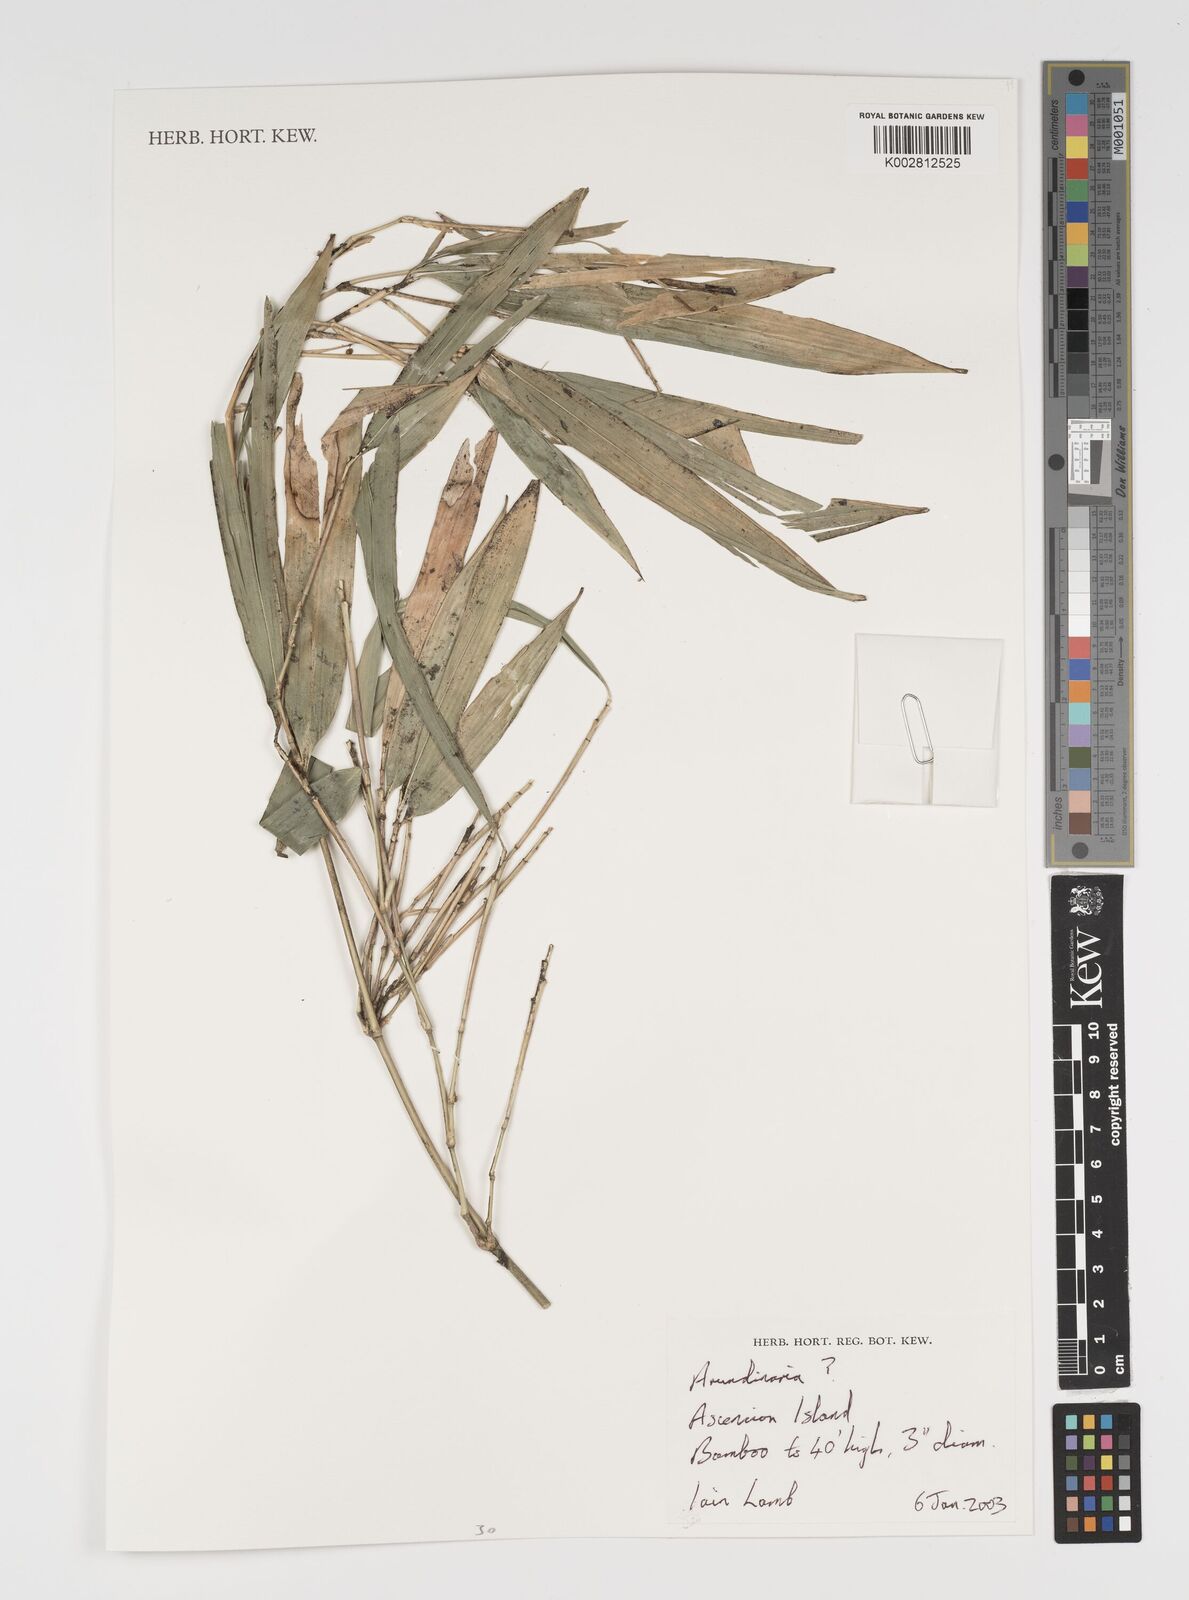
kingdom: Plantae
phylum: Tracheophyta
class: Liliopsida
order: Poales
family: Poaceae
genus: Arundinaria
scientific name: Arundinaria
